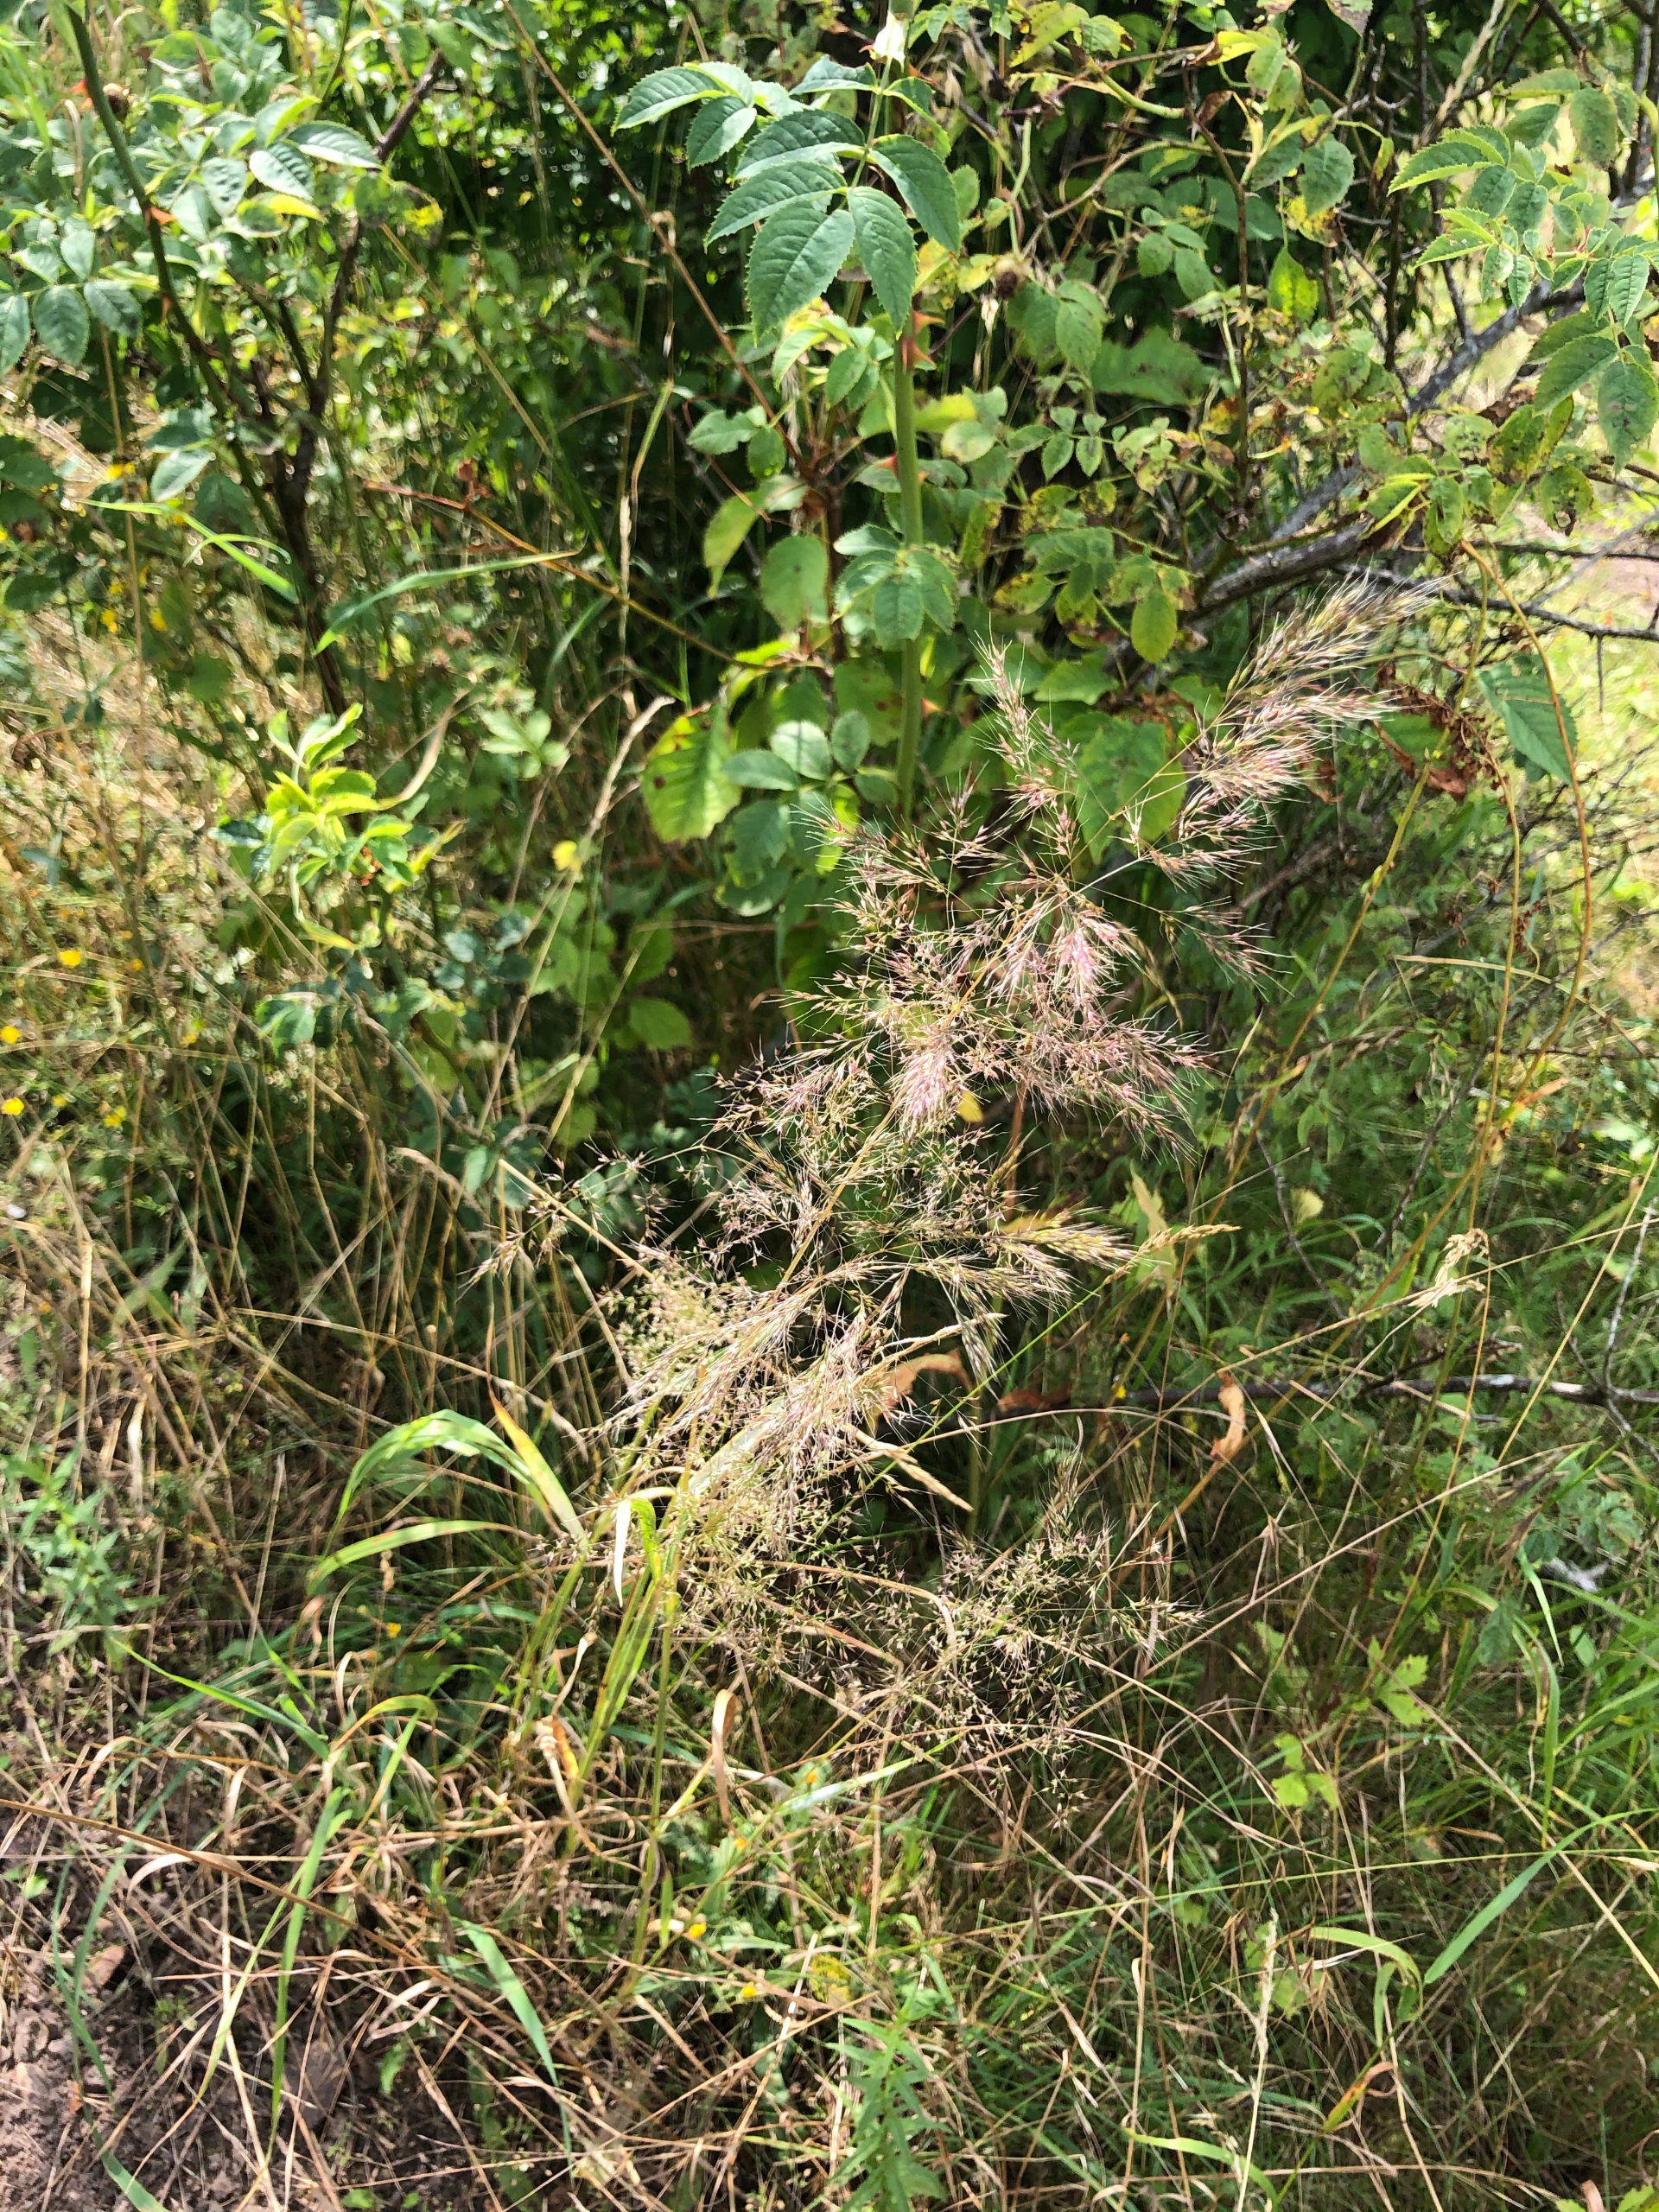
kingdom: Plantae
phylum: Tracheophyta
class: Liliopsida
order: Poales
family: Poaceae
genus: Apera
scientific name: Apera spica-venti
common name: Vindaks
